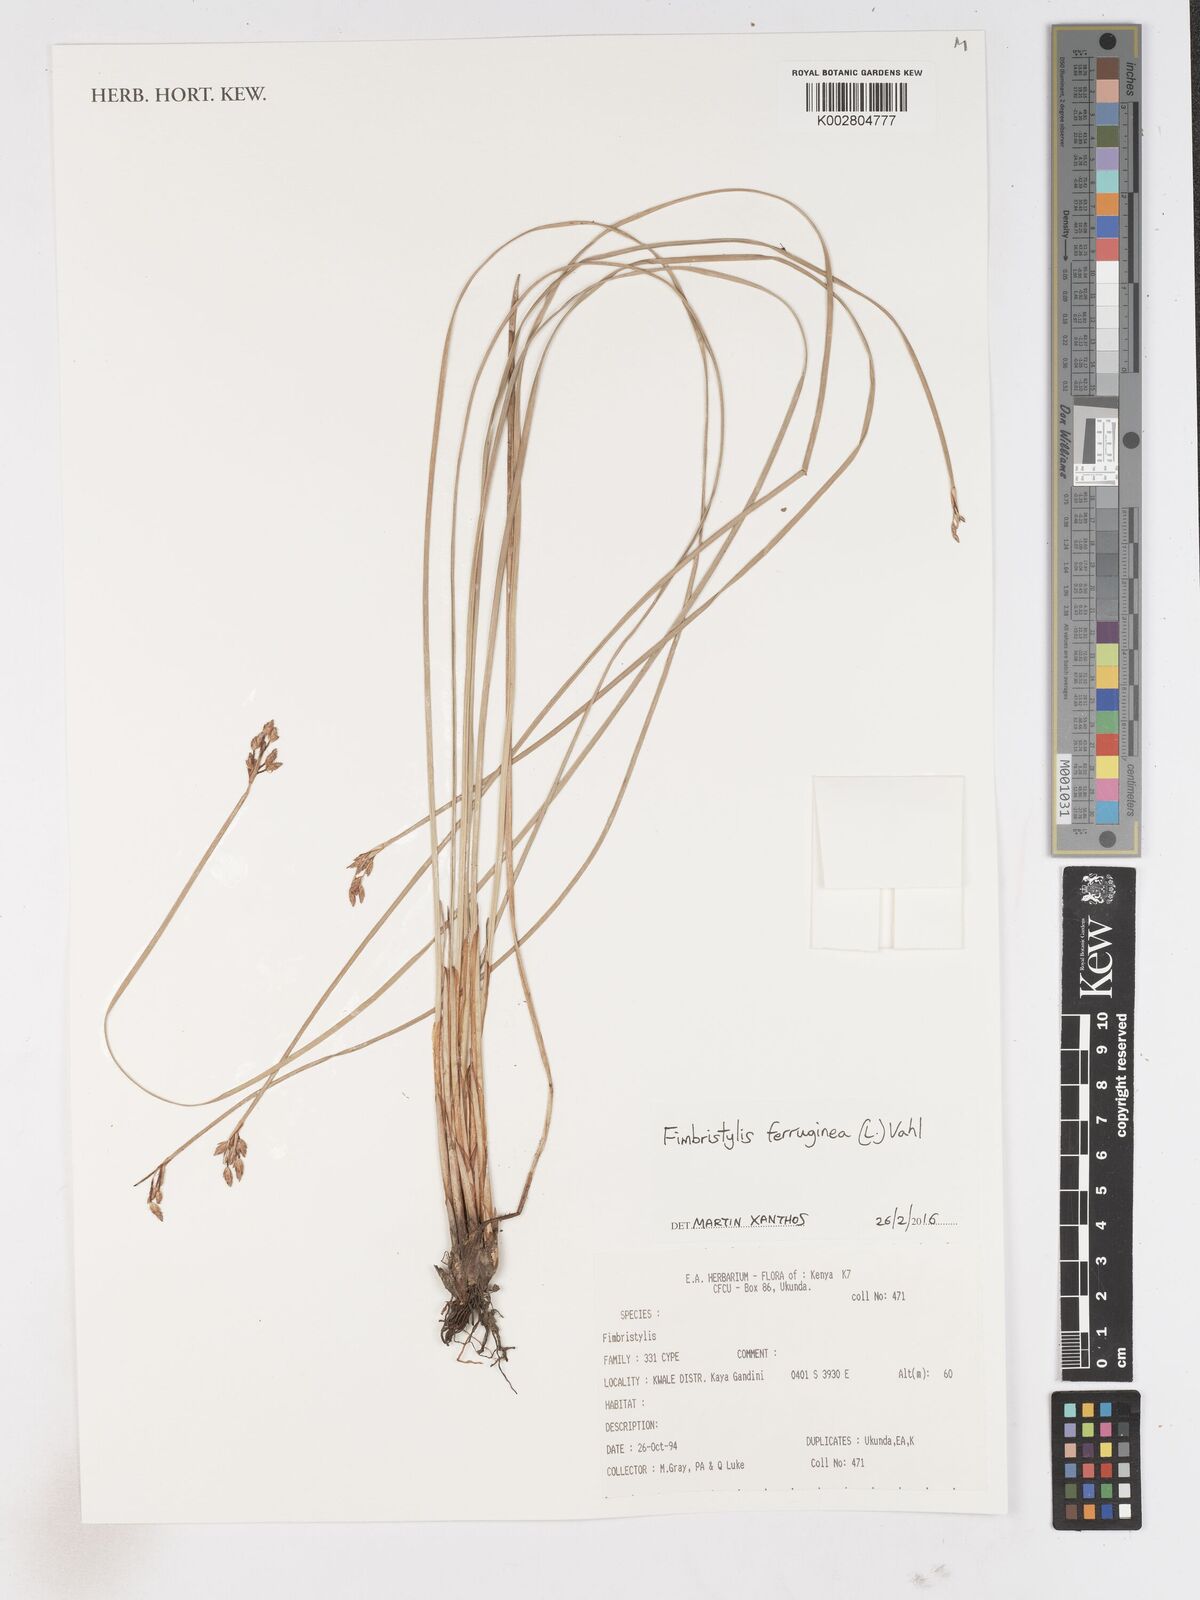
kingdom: Plantae
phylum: Tracheophyta
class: Liliopsida
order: Poales
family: Cyperaceae
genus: Fimbristylis
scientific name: Fimbristylis ferruginea
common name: West indian fimbry
